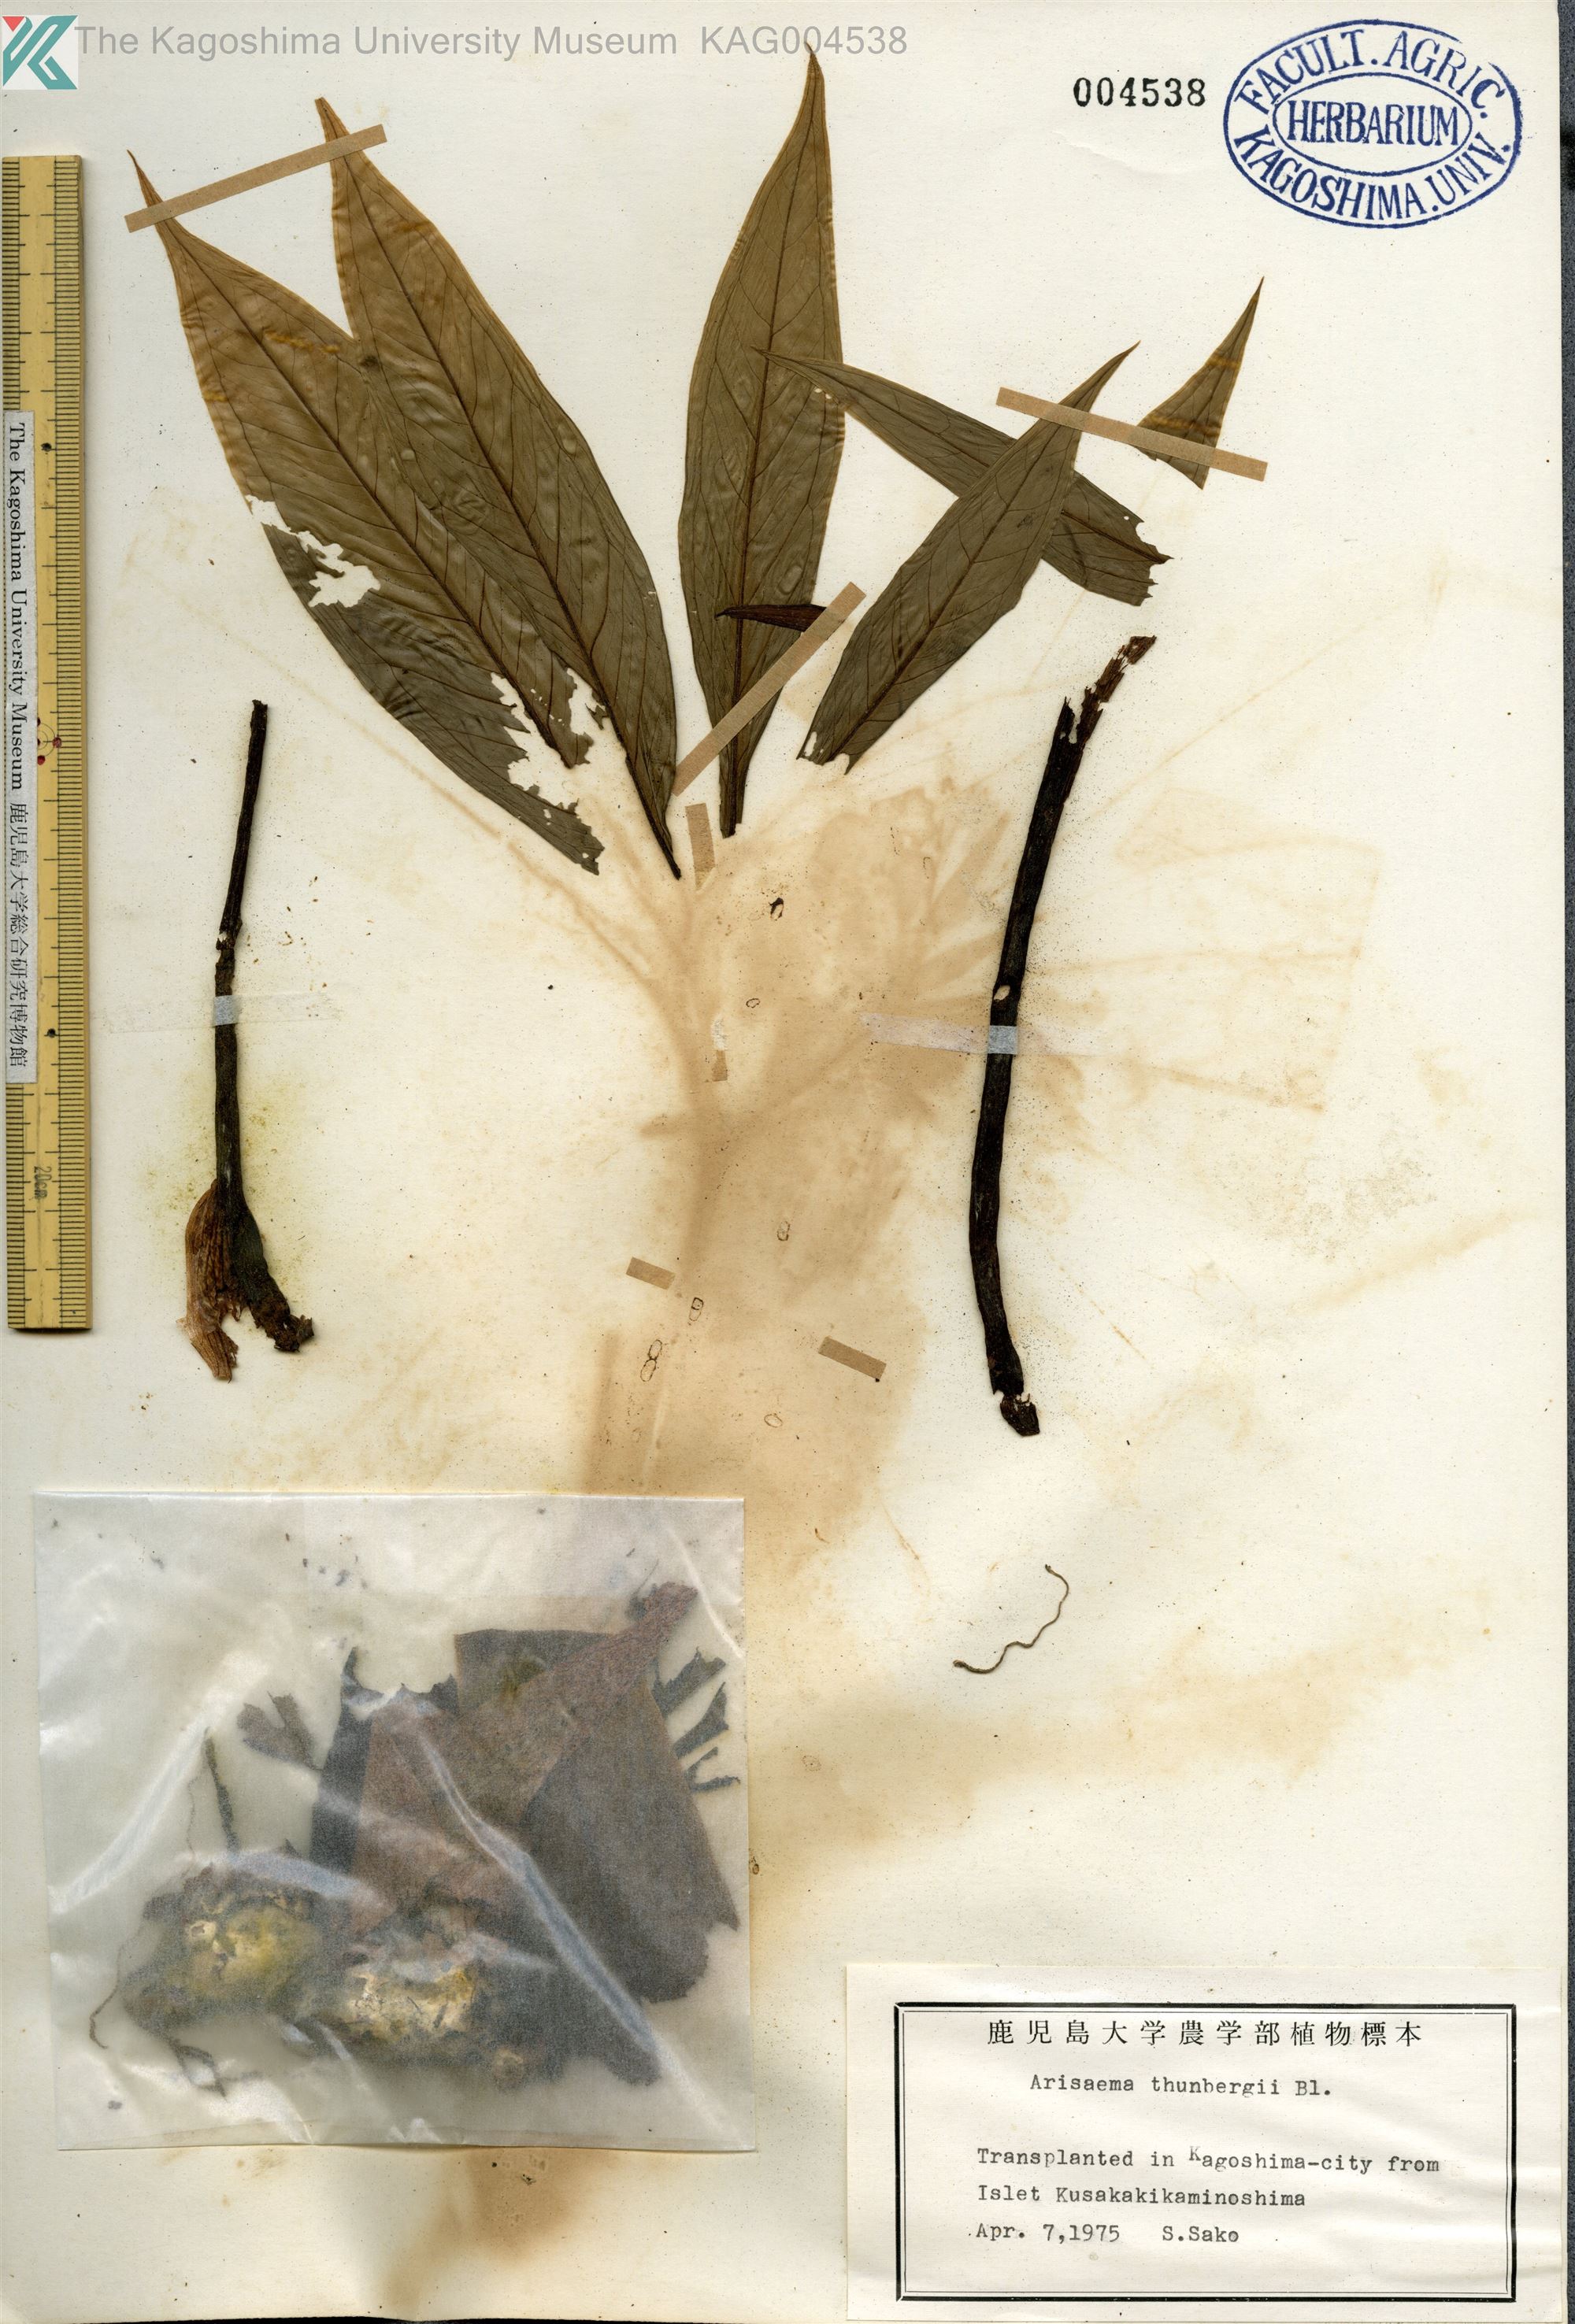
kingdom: Plantae
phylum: Tracheophyta
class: Liliopsida
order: Alismatales
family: Araceae
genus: Arisaema
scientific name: Arisaema thunbergii
